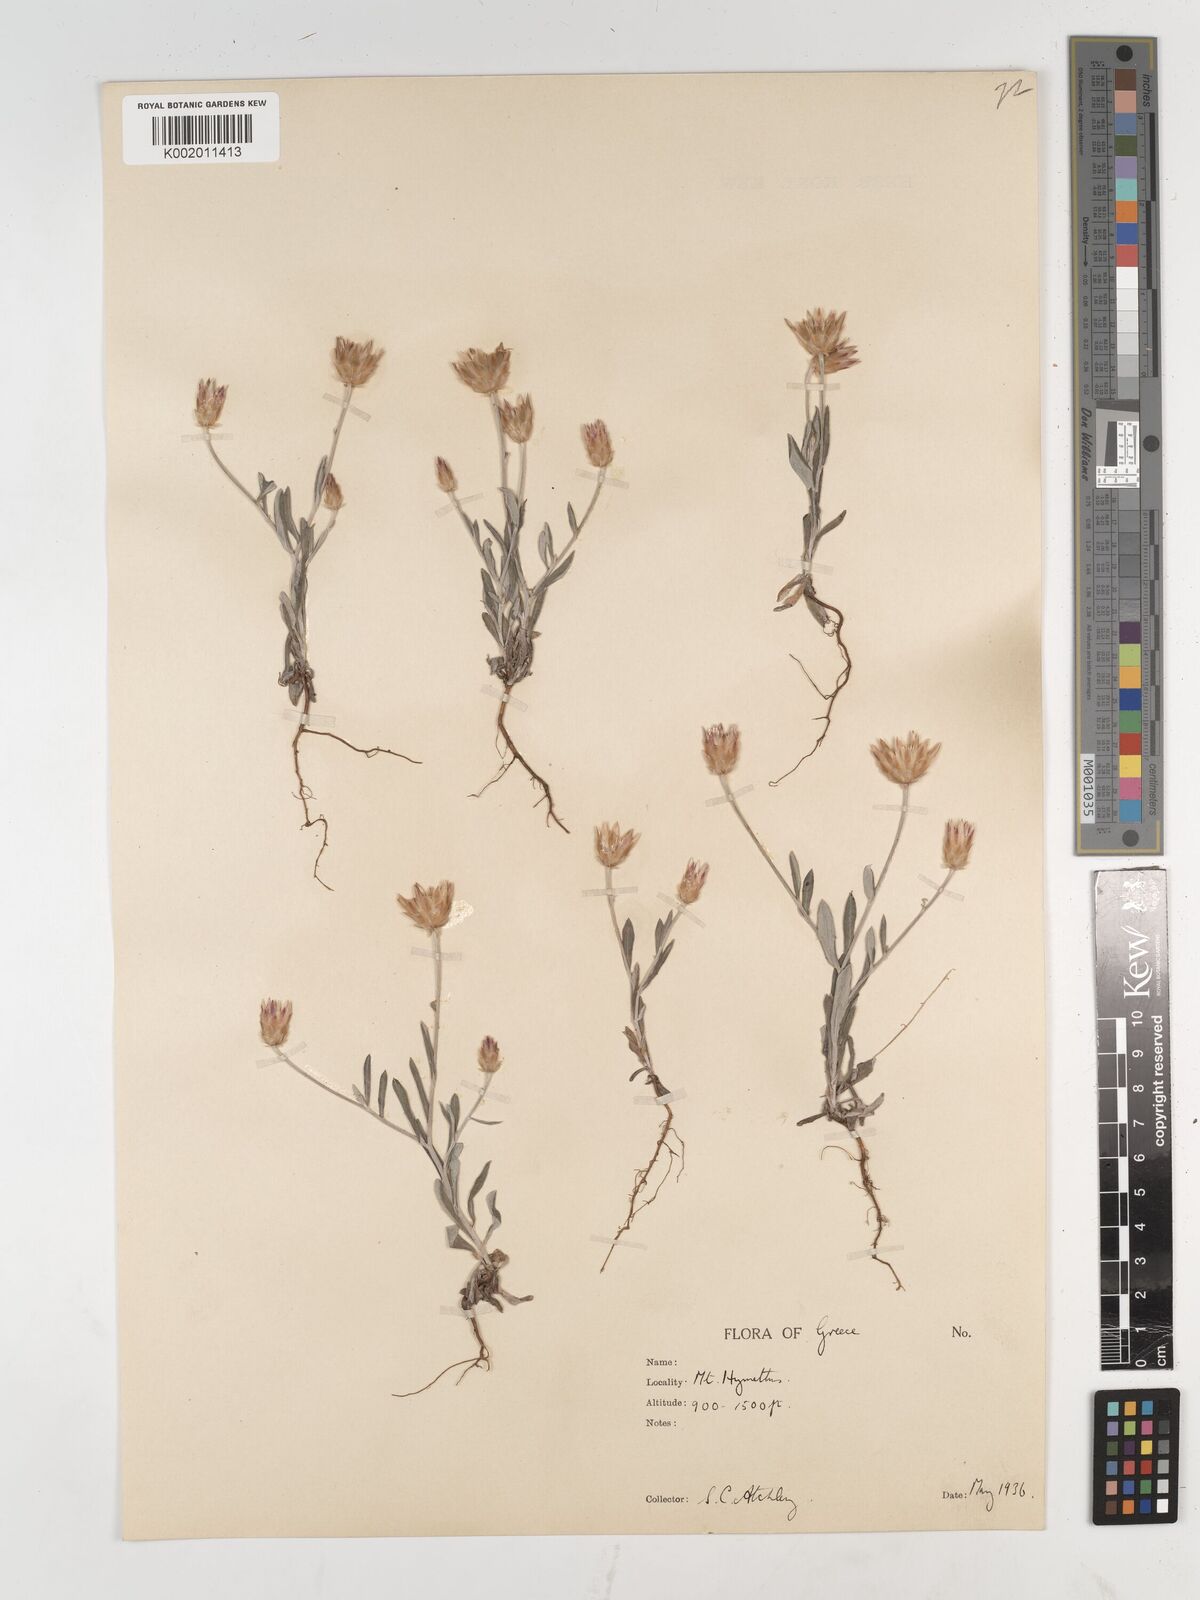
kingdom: Plantae
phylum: Tracheophyta
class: Magnoliopsida
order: Asterales
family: Asteraceae
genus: Xeranthemum
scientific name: Xeranthemum inapertum
